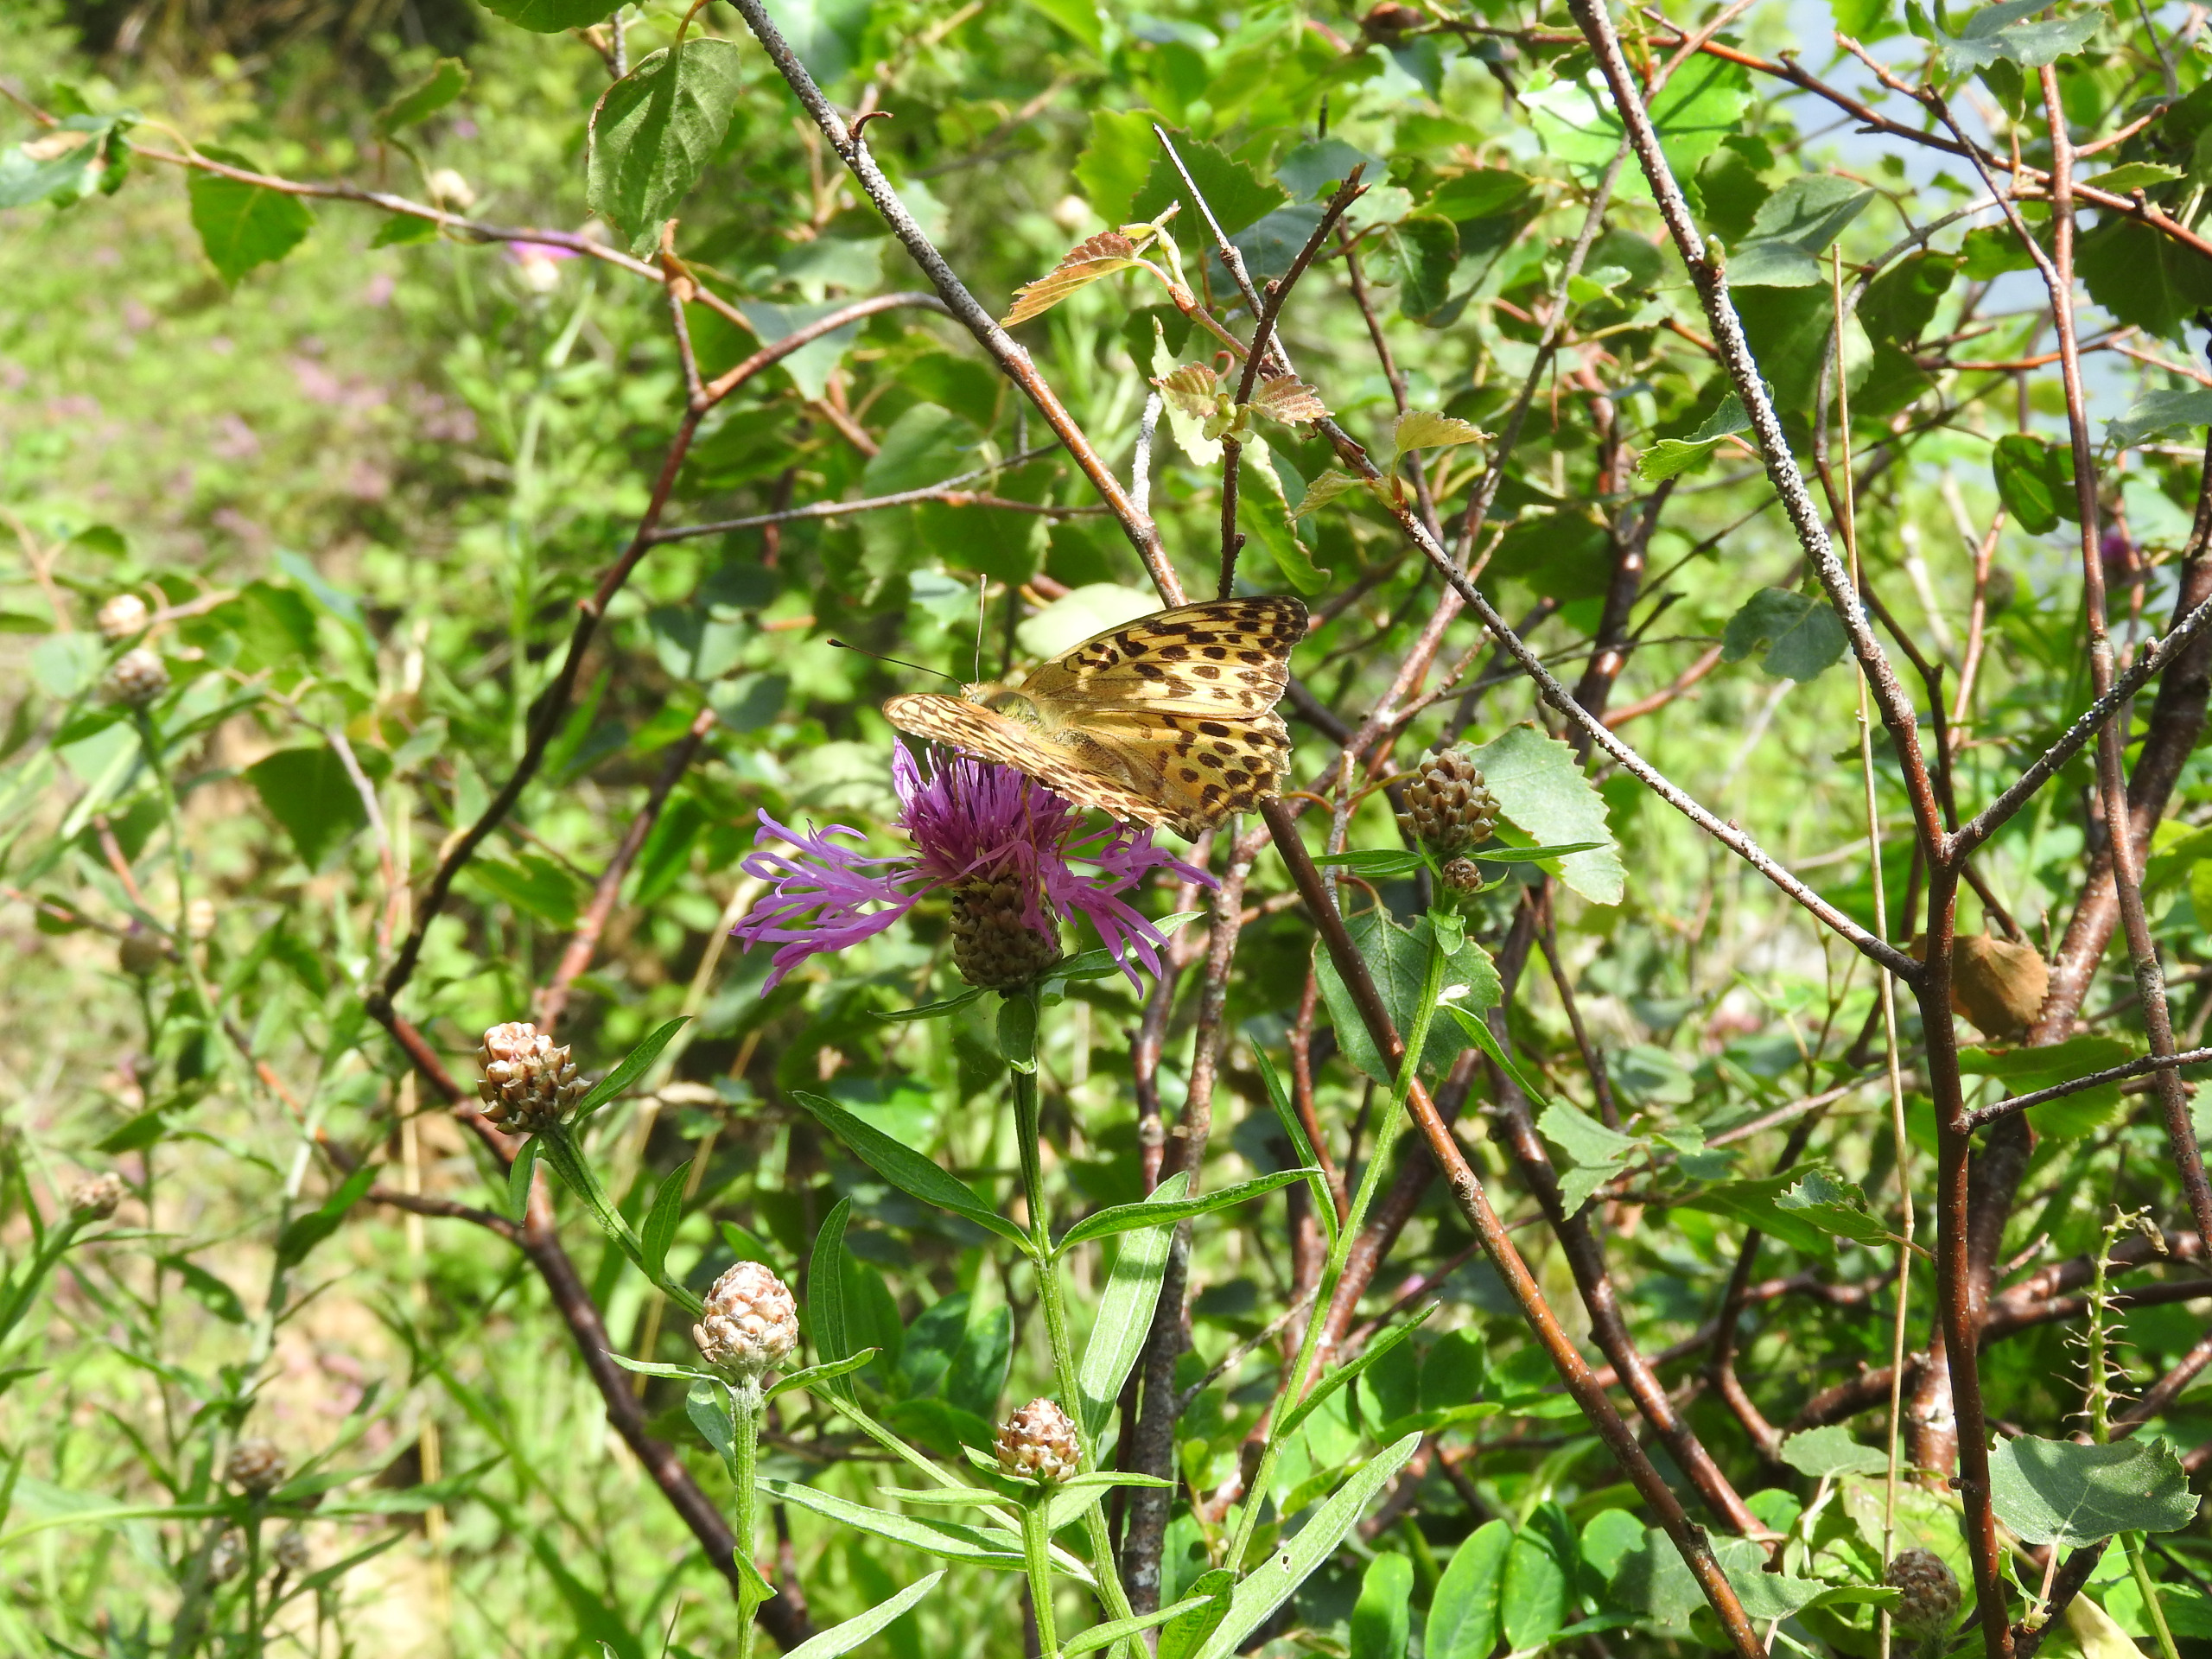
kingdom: Animalia
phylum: Arthropoda
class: Insecta
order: Lepidoptera
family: Nymphalidae
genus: Argynnis
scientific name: Argynnis paphia
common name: Kejserkåbe
